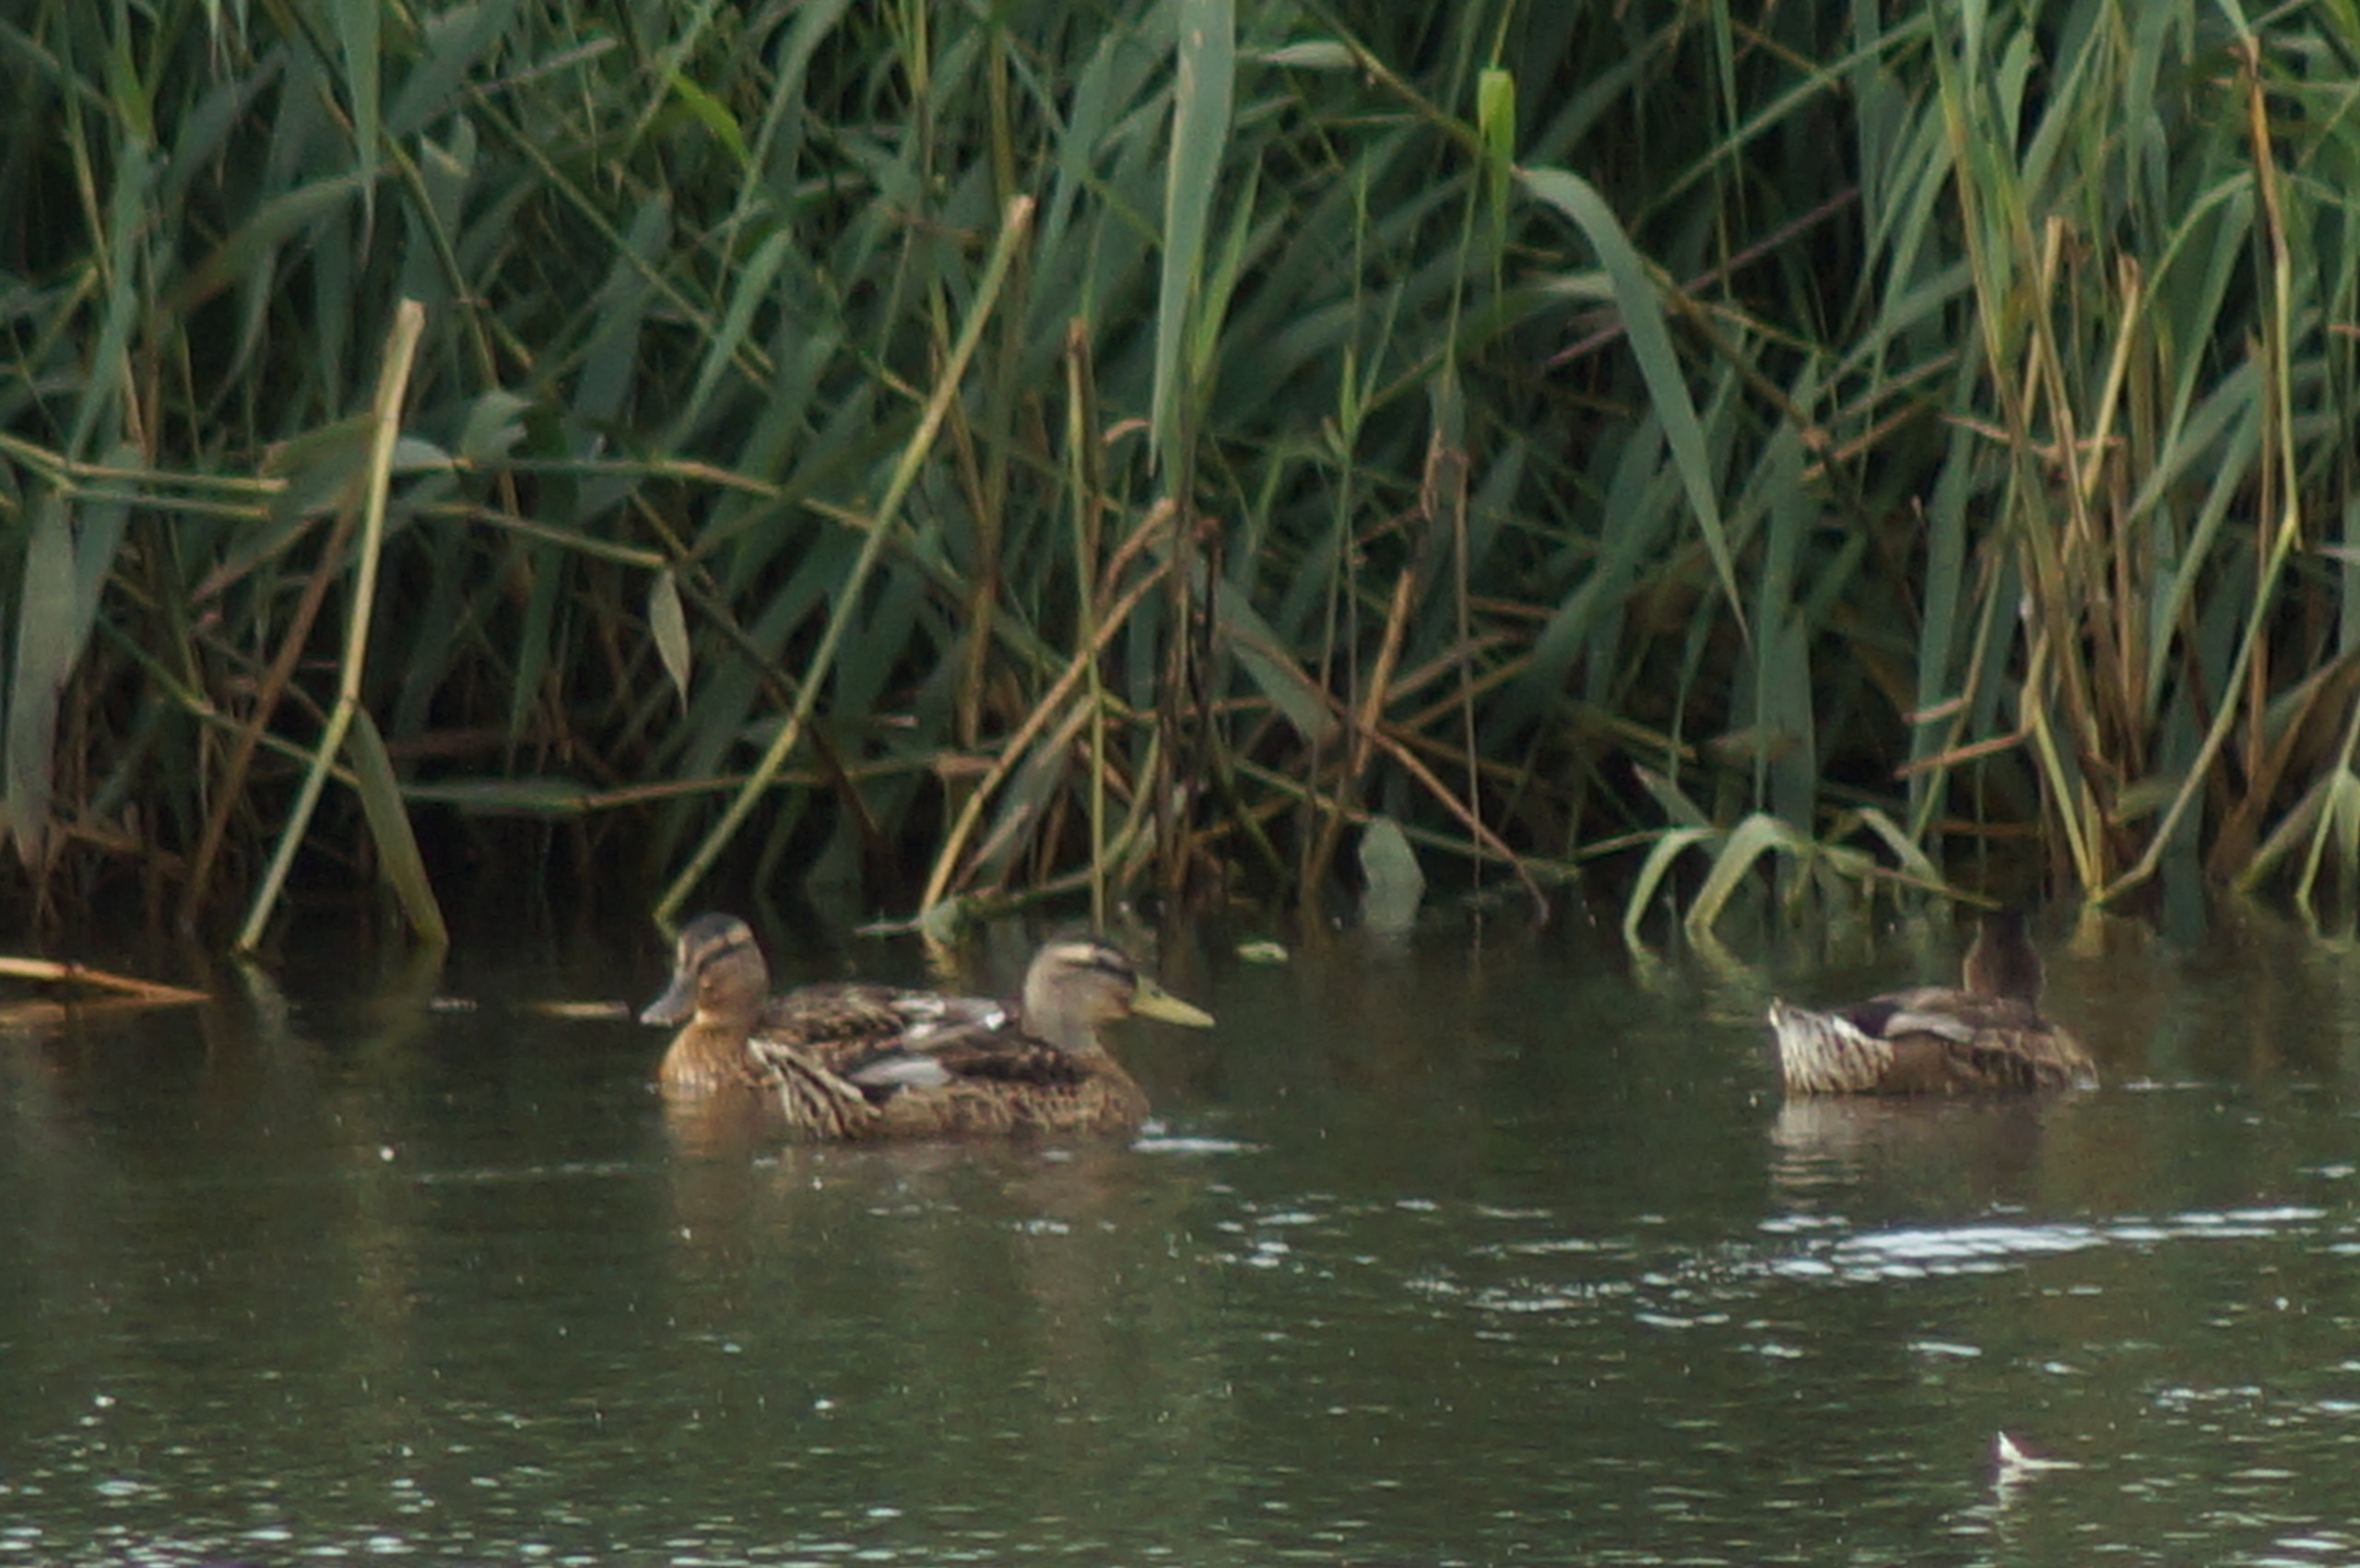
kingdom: Animalia
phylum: Chordata
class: Aves
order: Anseriformes
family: Anatidae
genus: Anas
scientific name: Anas platyrhynchos
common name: Gråand
